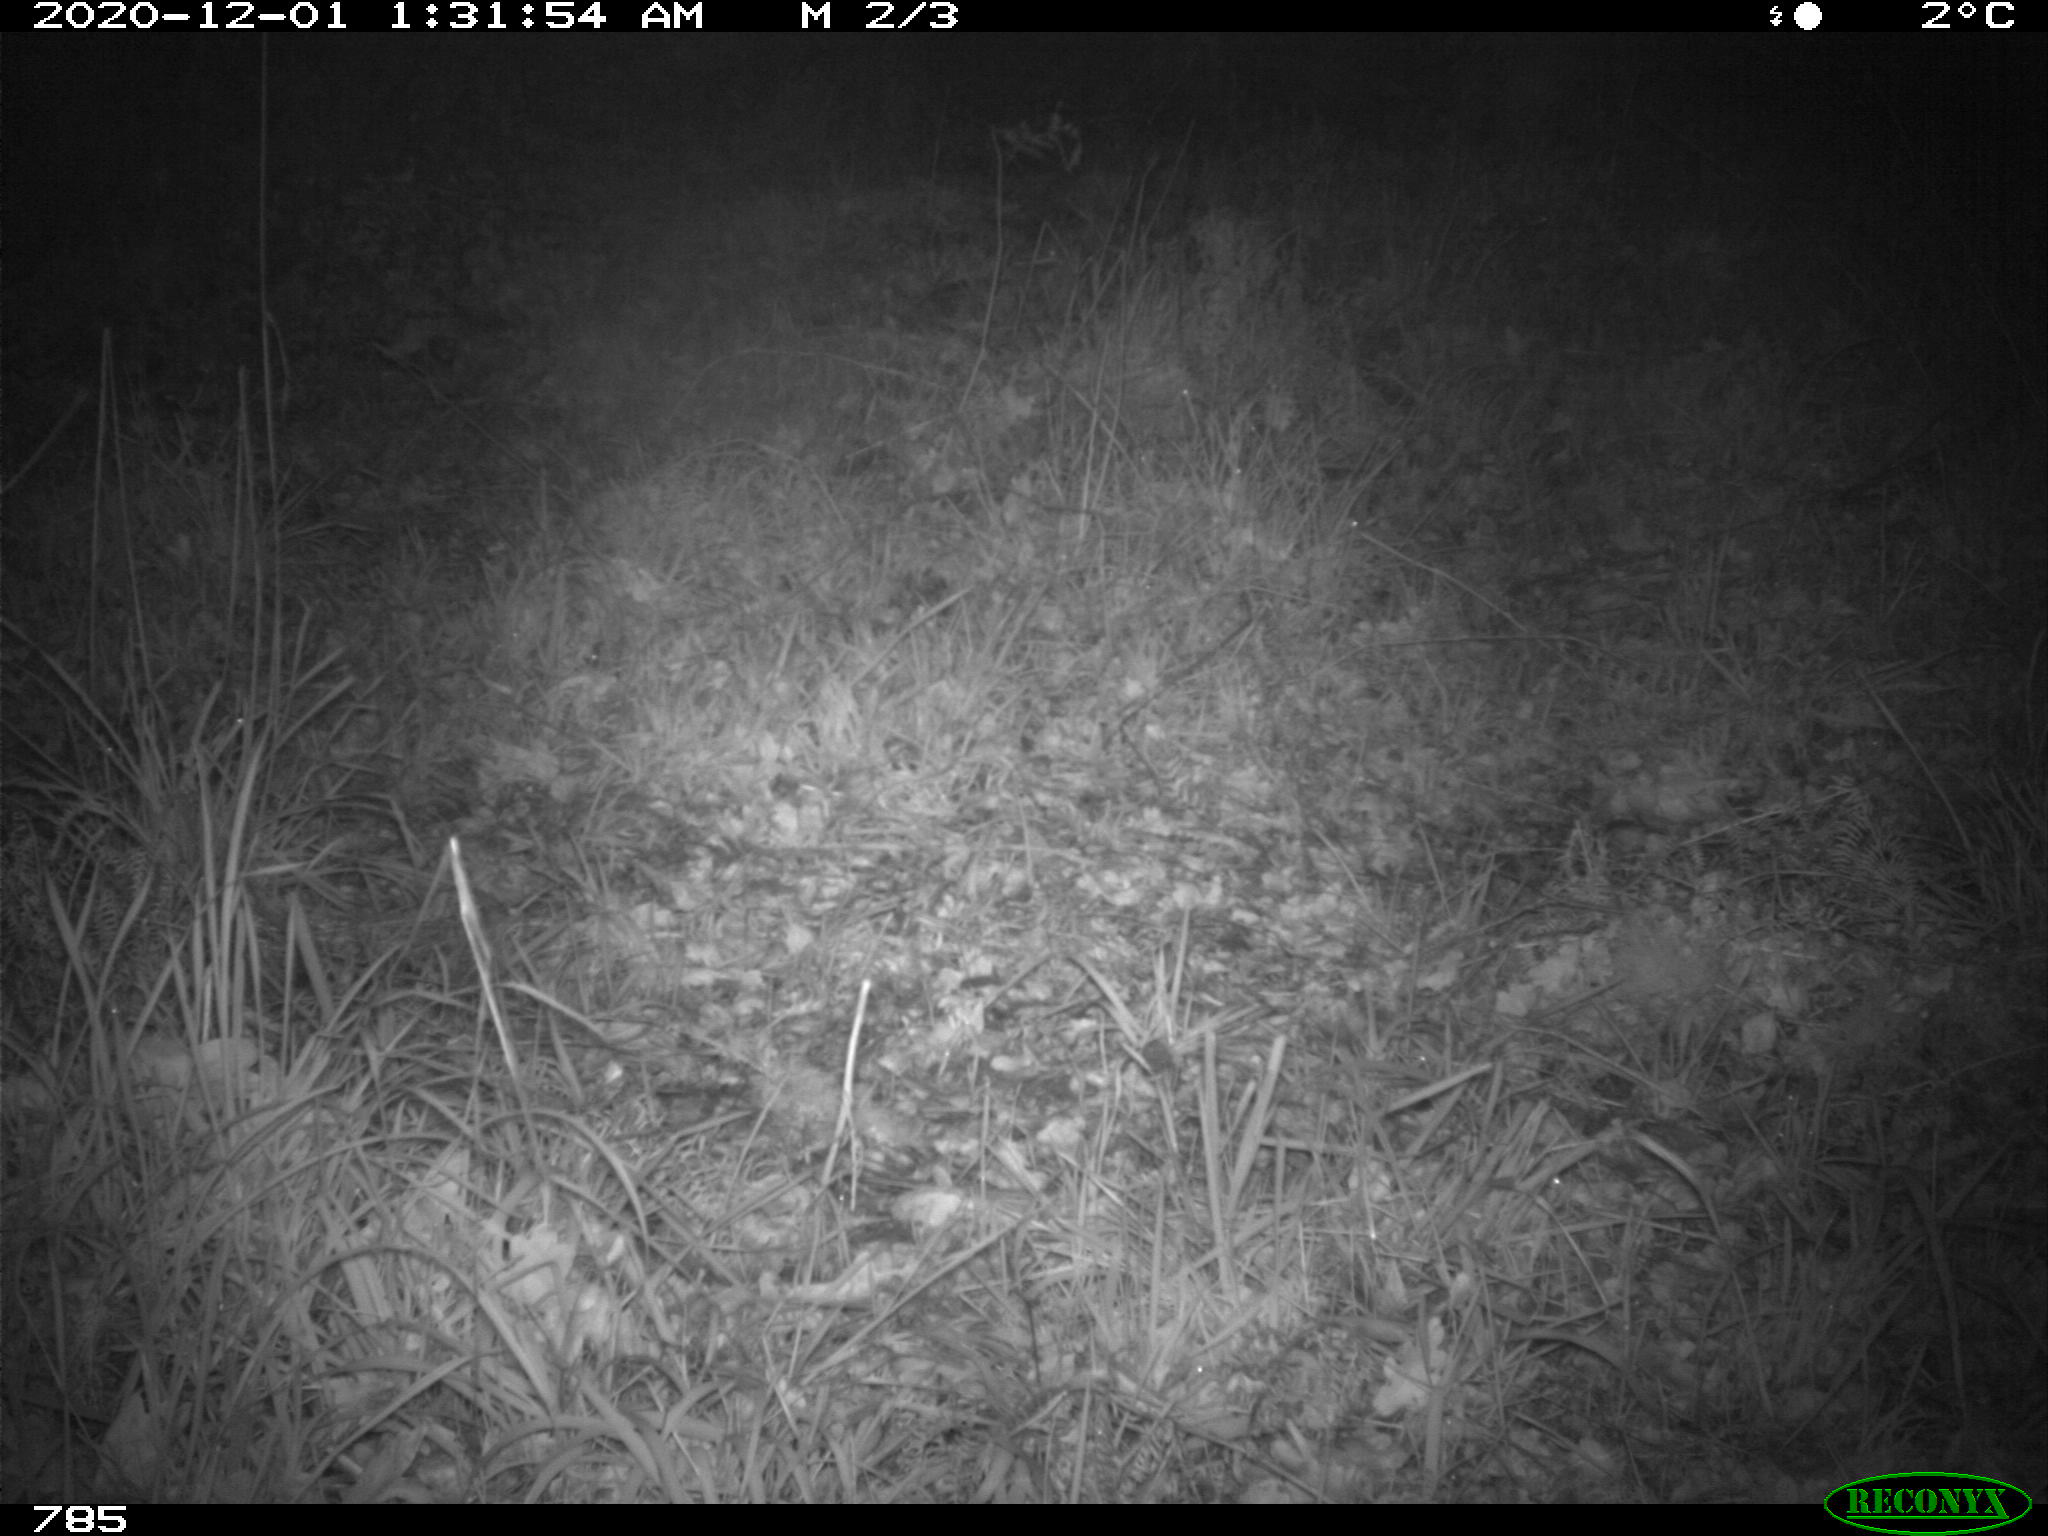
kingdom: Animalia
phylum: Chordata
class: Mammalia
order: Artiodactyla
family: Bovidae
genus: Bos
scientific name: Bos taurus
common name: Domesticated cattle
